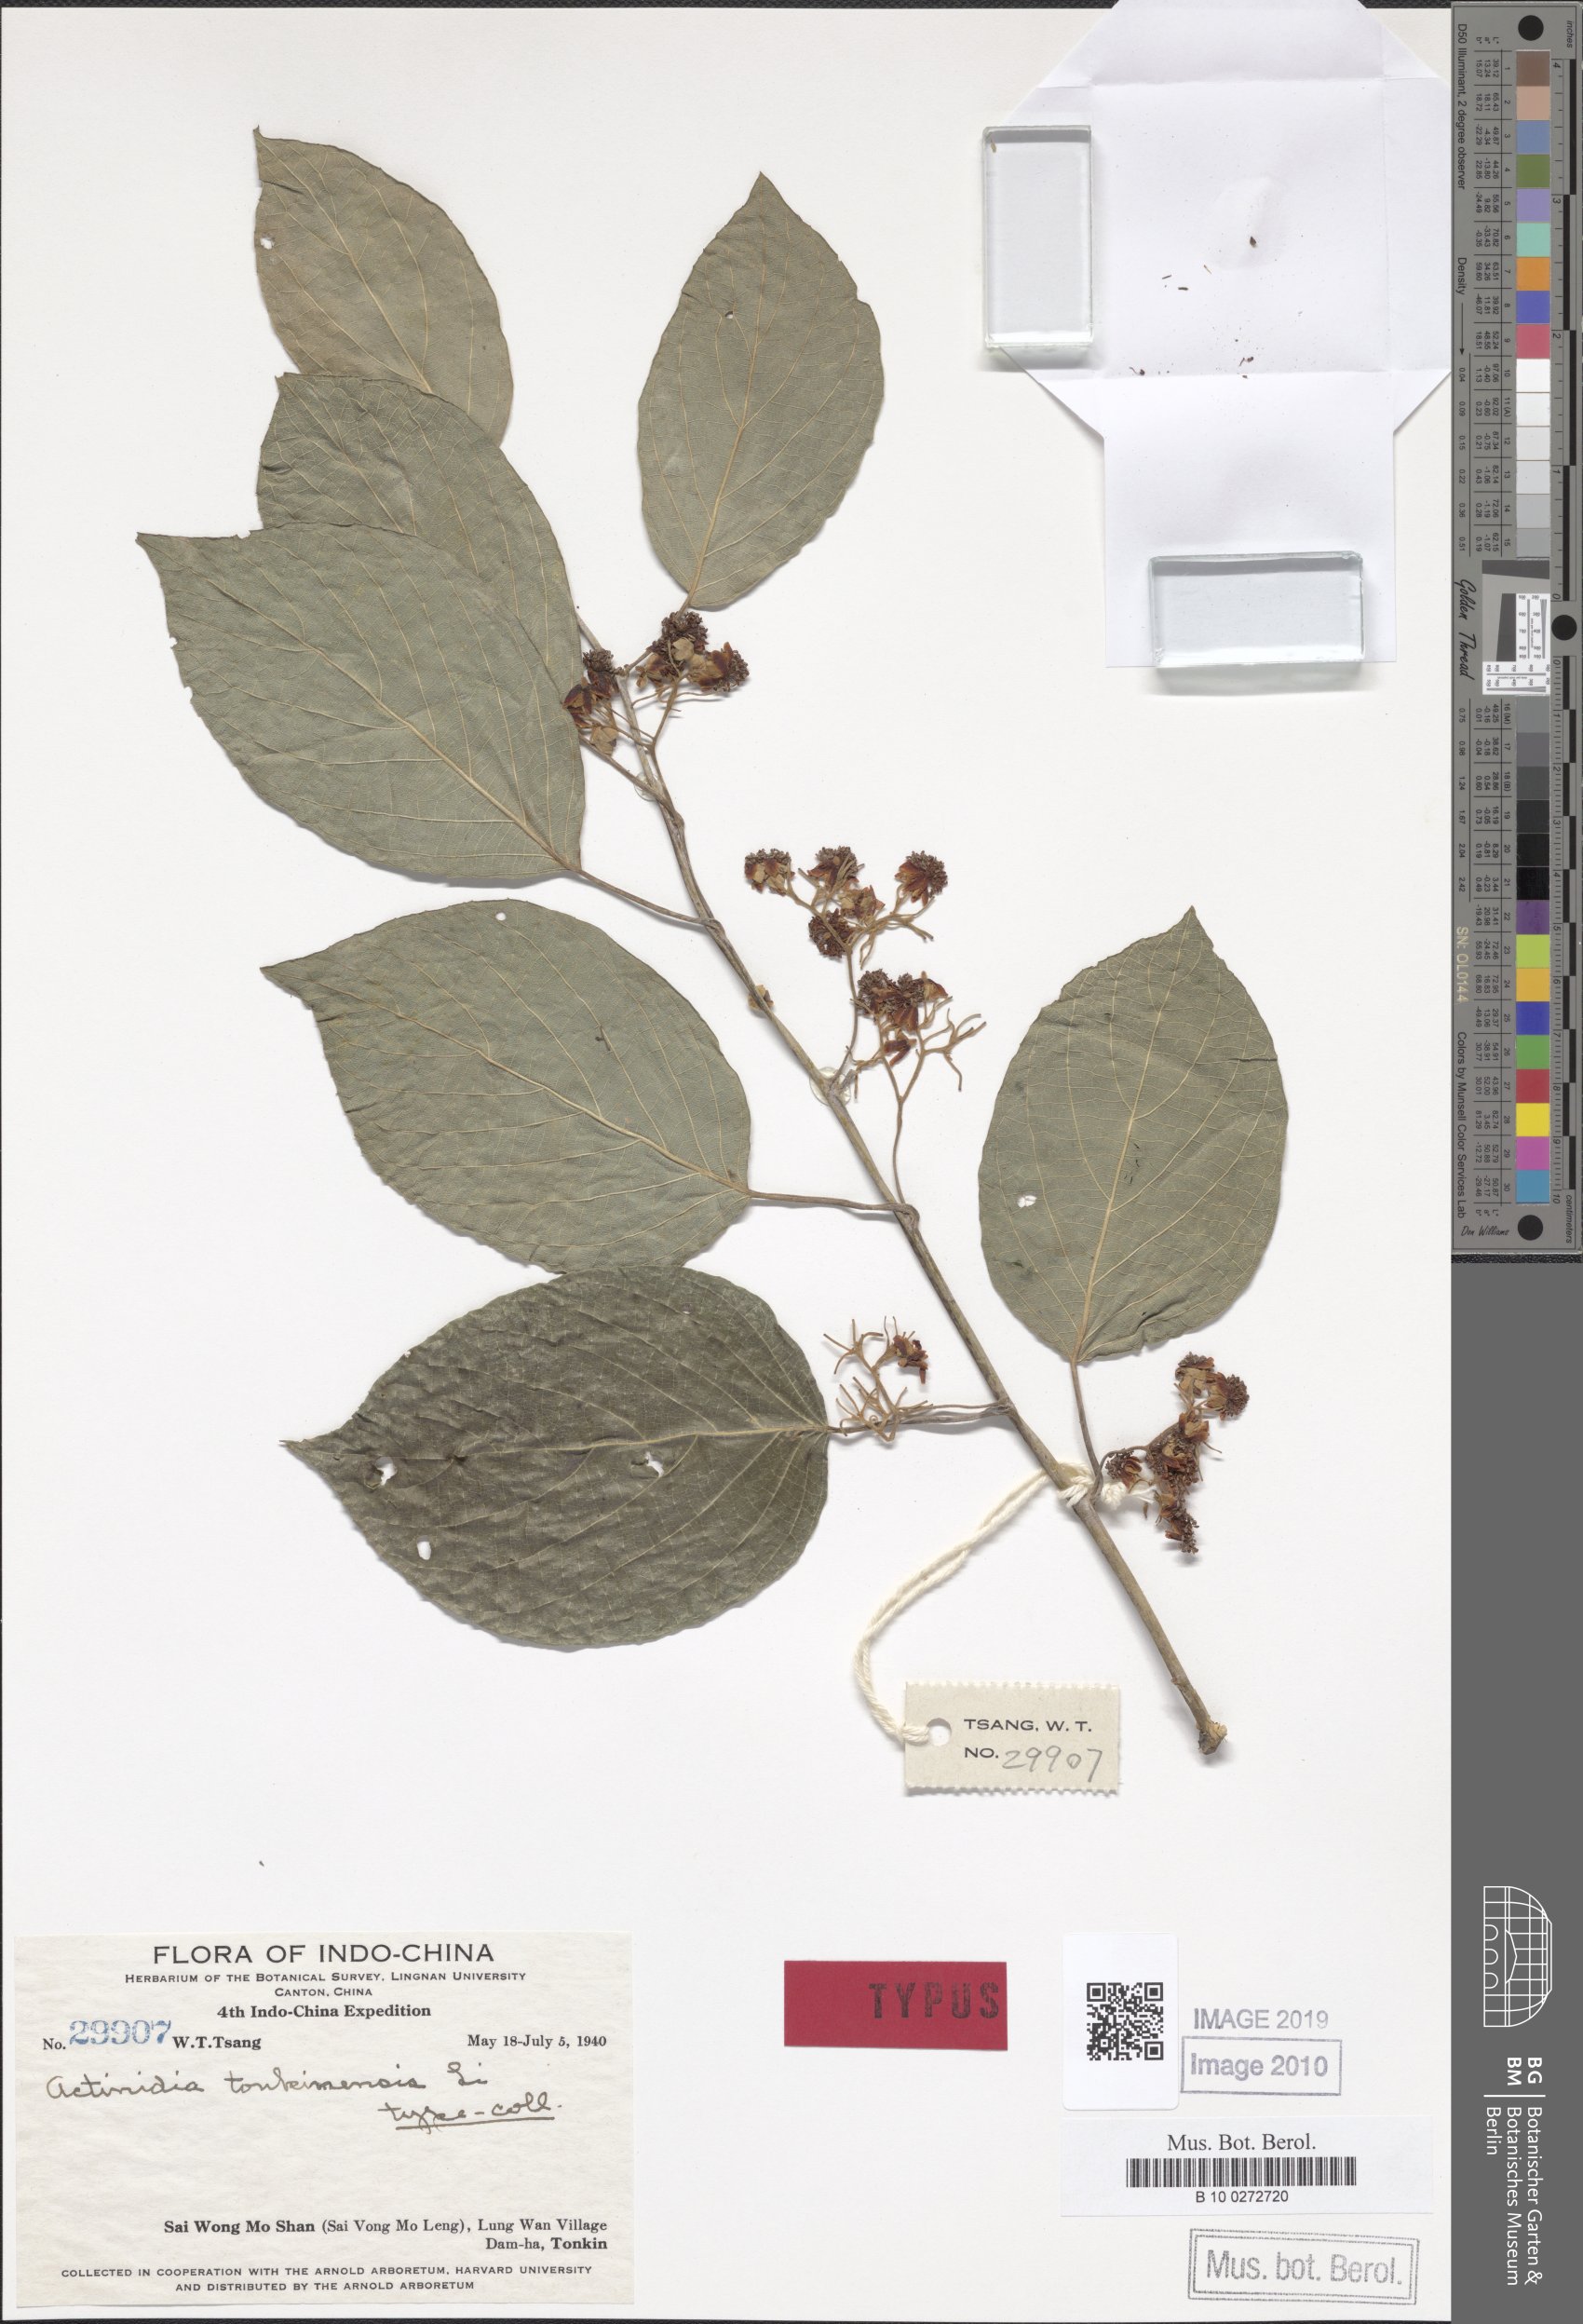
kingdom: Plantae
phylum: Tracheophyta
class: Magnoliopsida
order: Ericales
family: Actinidiaceae
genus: Actinidia
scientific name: Actinidia latifolia
